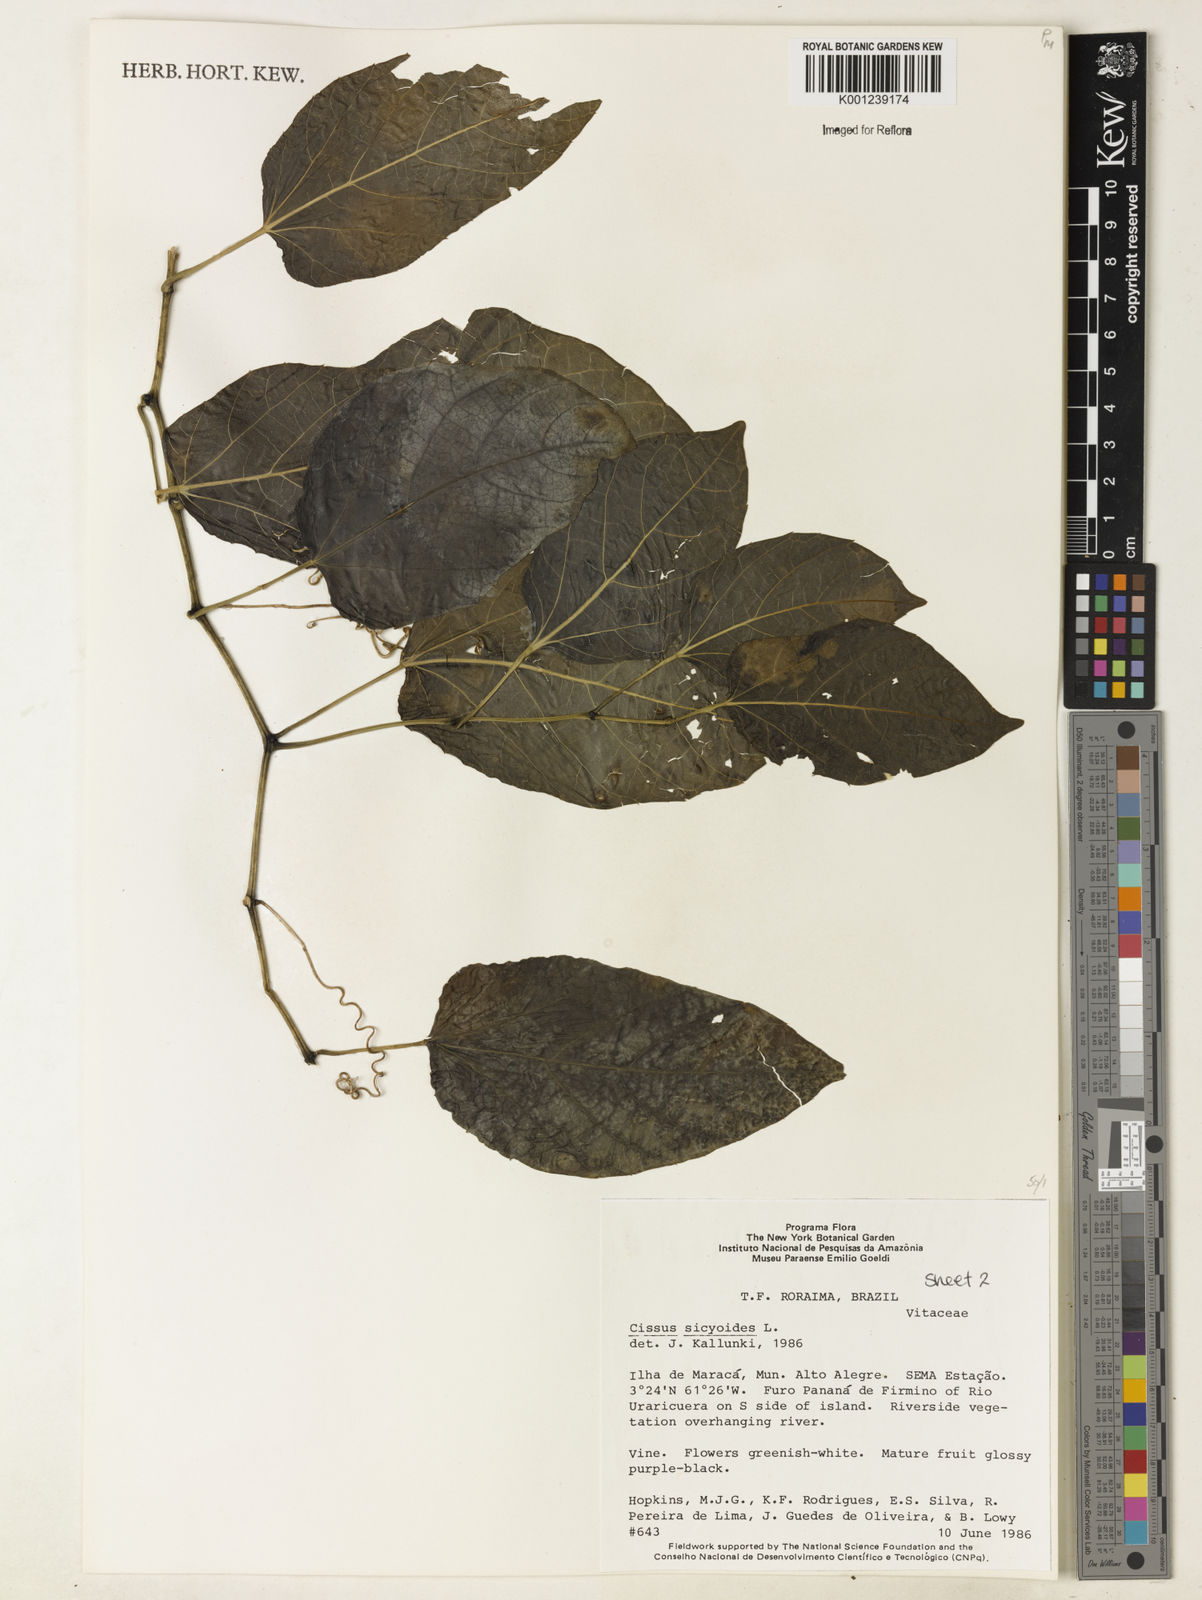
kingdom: Plantae
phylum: Tracheophyta
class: Magnoliopsida
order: Vitales
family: Vitaceae
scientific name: Vitaceae
